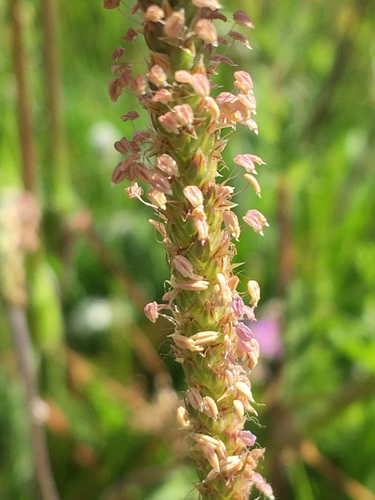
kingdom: Plantae
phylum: Tracheophyta
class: Magnoliopsida
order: Lamiales
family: Plantaginaceae
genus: Plantago
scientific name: Plantago coronopus
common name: Buck's-horn plantain
